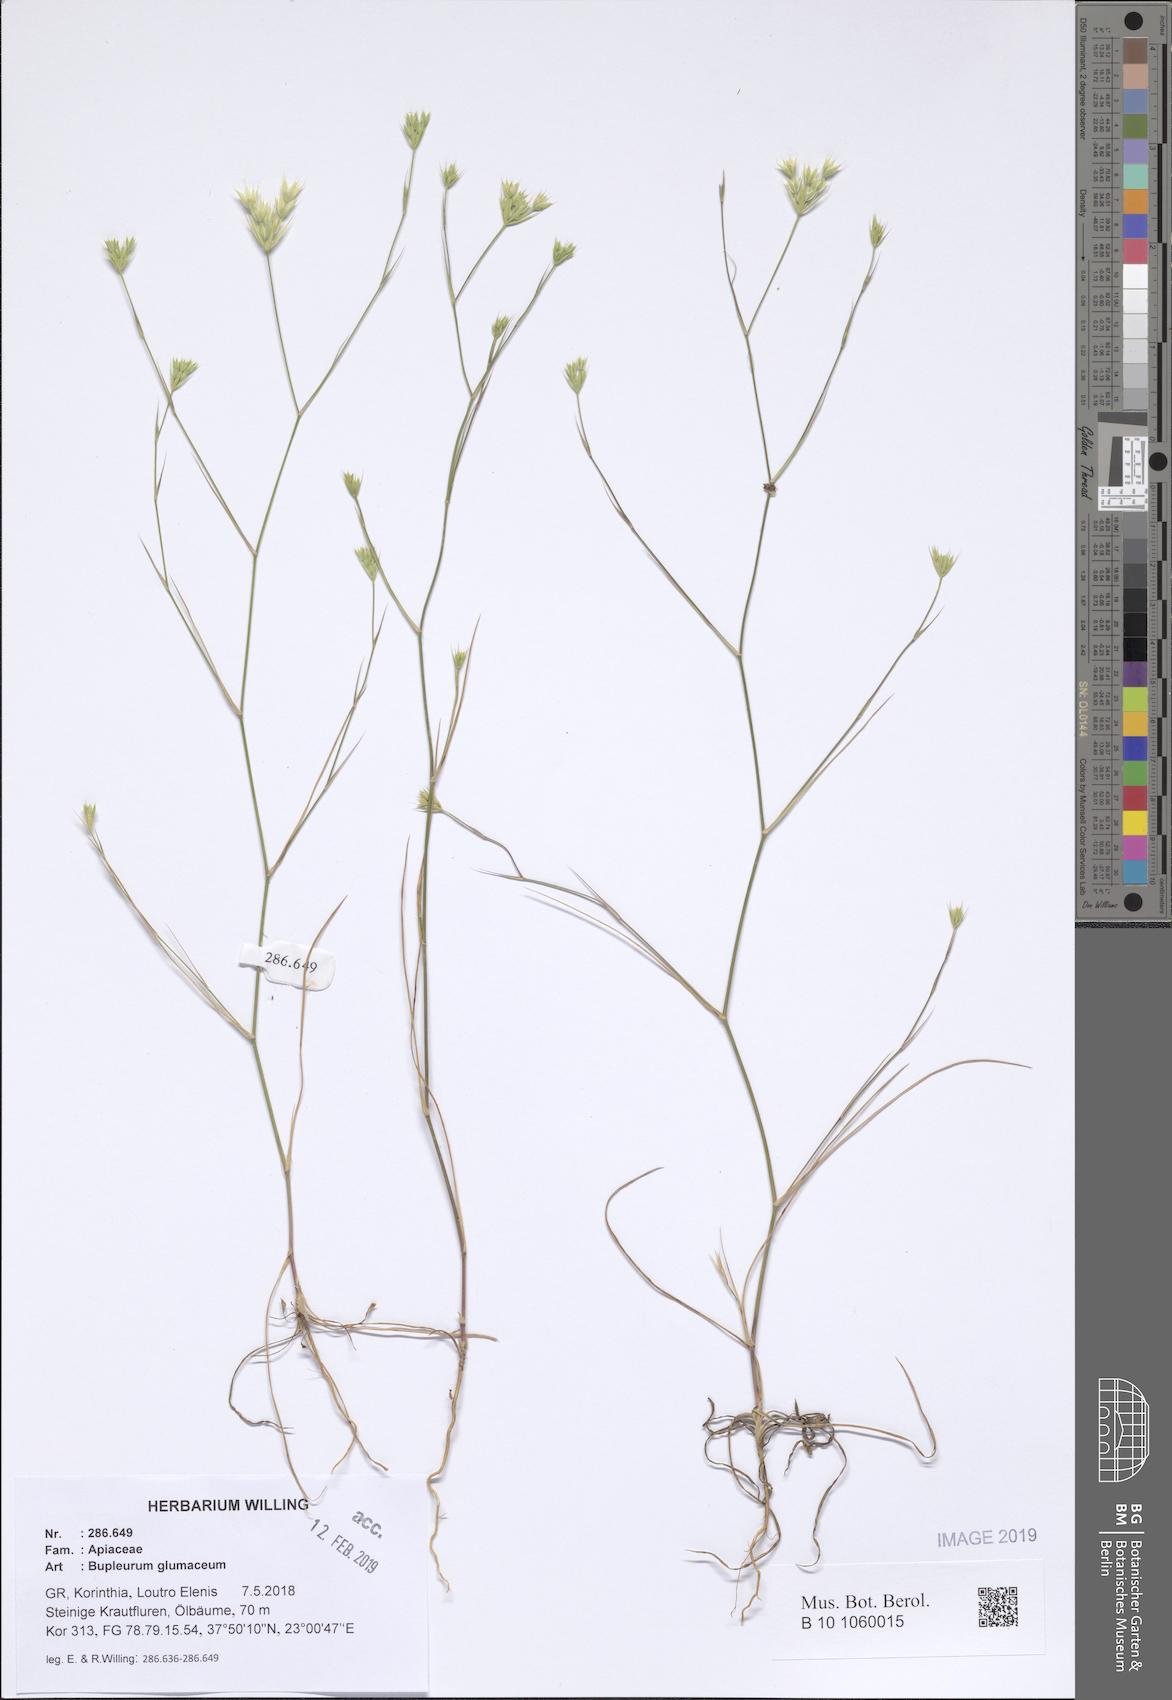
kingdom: Plantae
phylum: Tracheophyta
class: Magnoliopsida
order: Apiales
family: Apiaceae
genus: Bupleurum
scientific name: Bupleurum glumaceum
